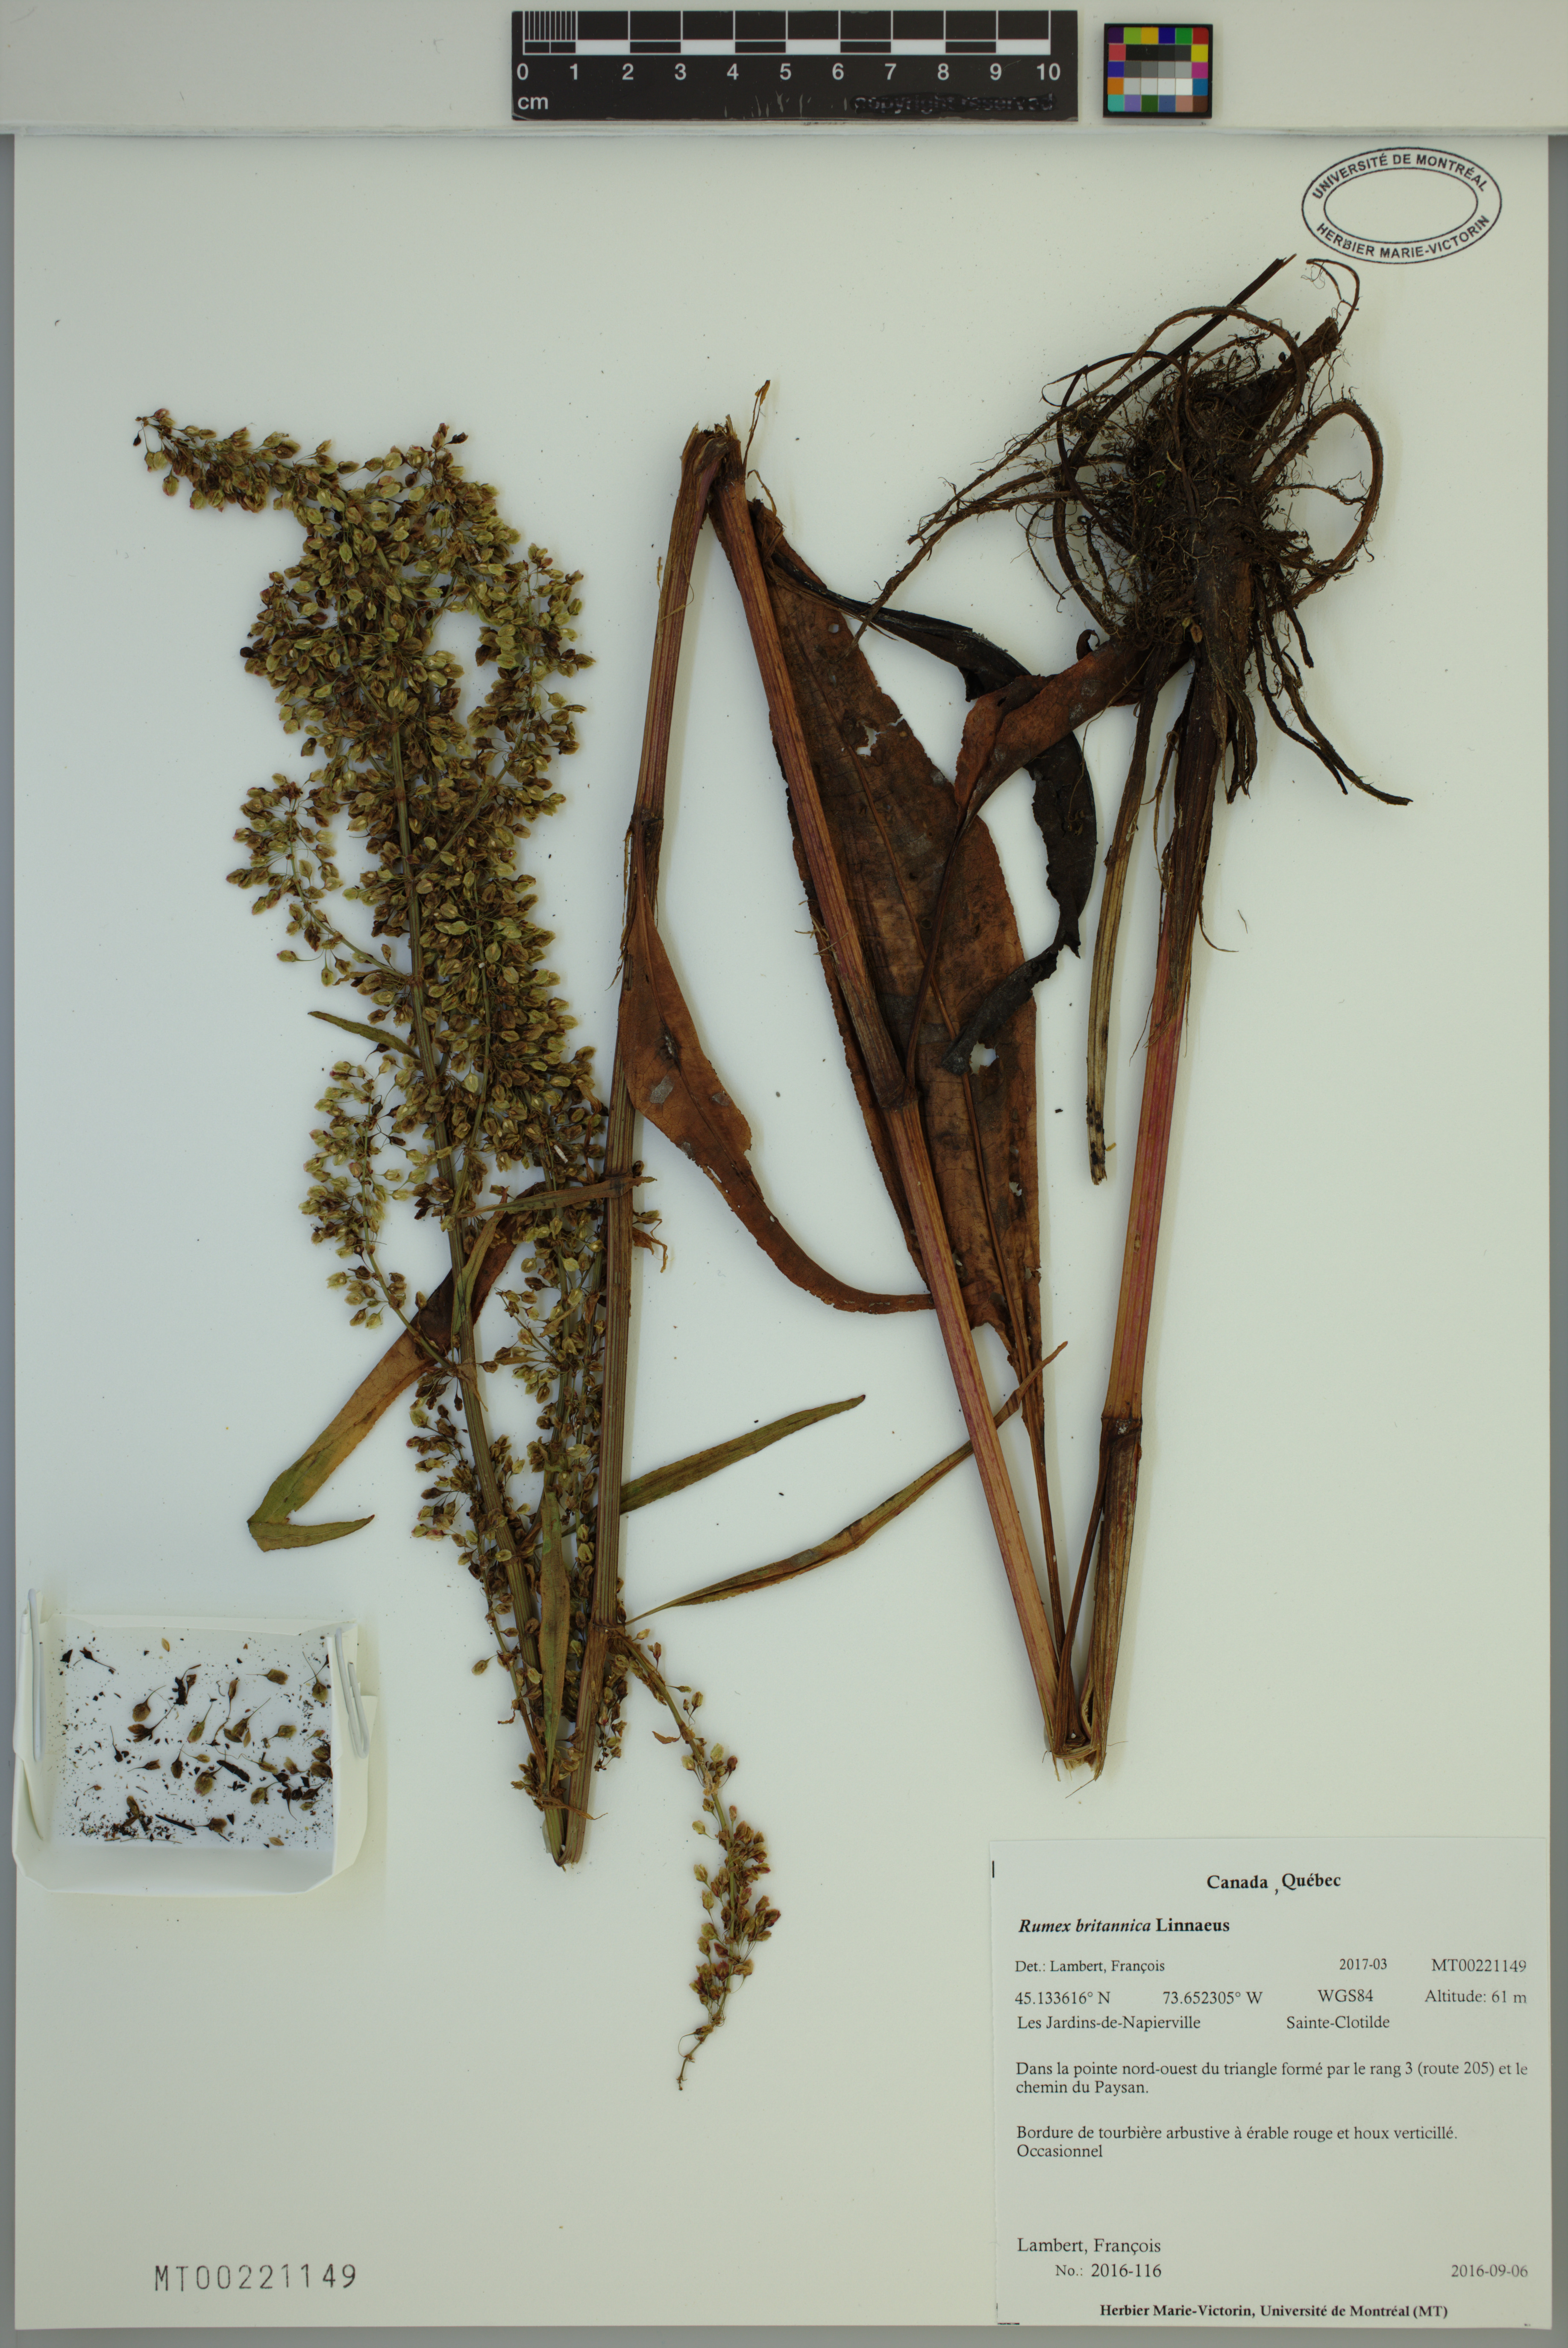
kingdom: Plantae
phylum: Tracheophyta
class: Magnoliopsida
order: Caryophyllales
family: Polygonaceae
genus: Rumex
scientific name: Rumex britannica
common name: British dock
